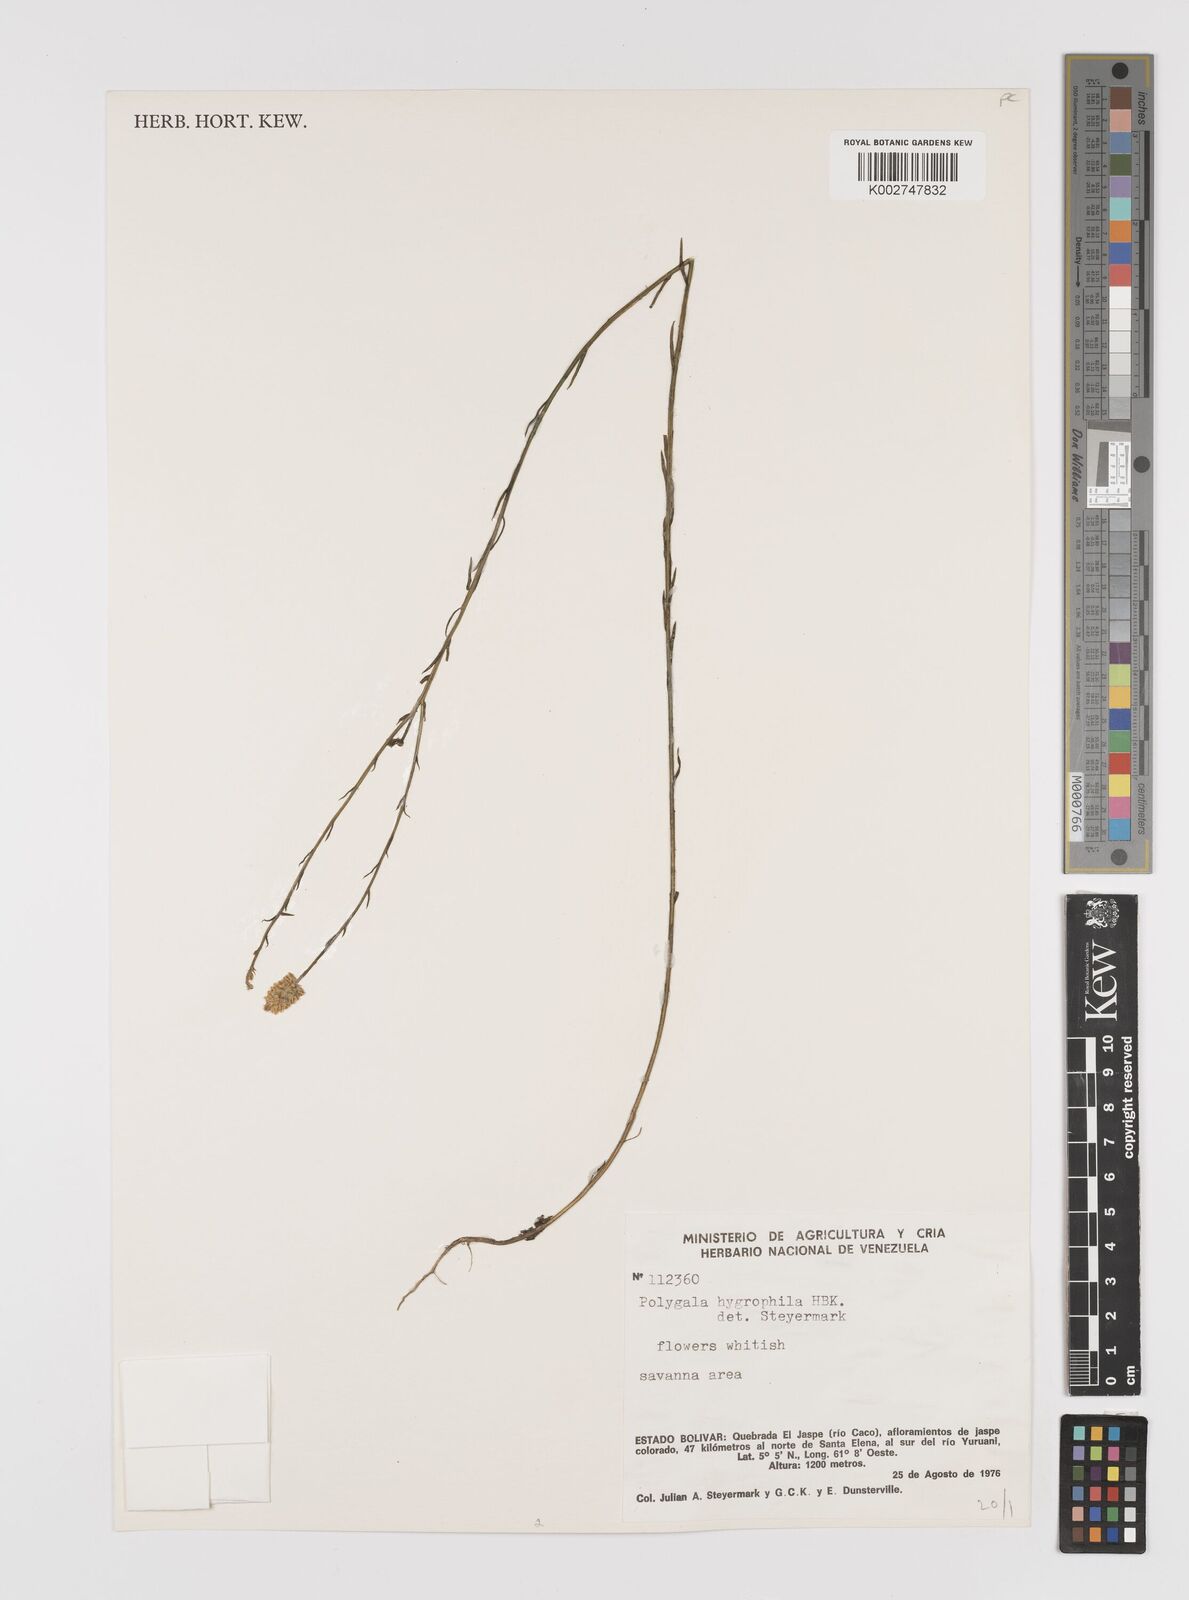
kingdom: Plantae
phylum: Tracheophyta
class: Magnoliopsida
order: Fabales
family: Polygalaceae
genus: Polygala
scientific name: Polygala hygrophila
